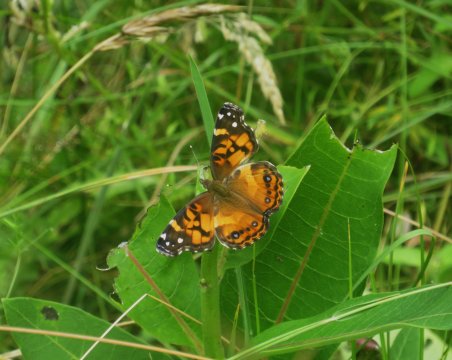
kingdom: Animalia
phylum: Arthropoda
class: Insecta
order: Lepidoptera
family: Nymphalidae
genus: Vanessa
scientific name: Vanessa virginiensis
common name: American Lady
